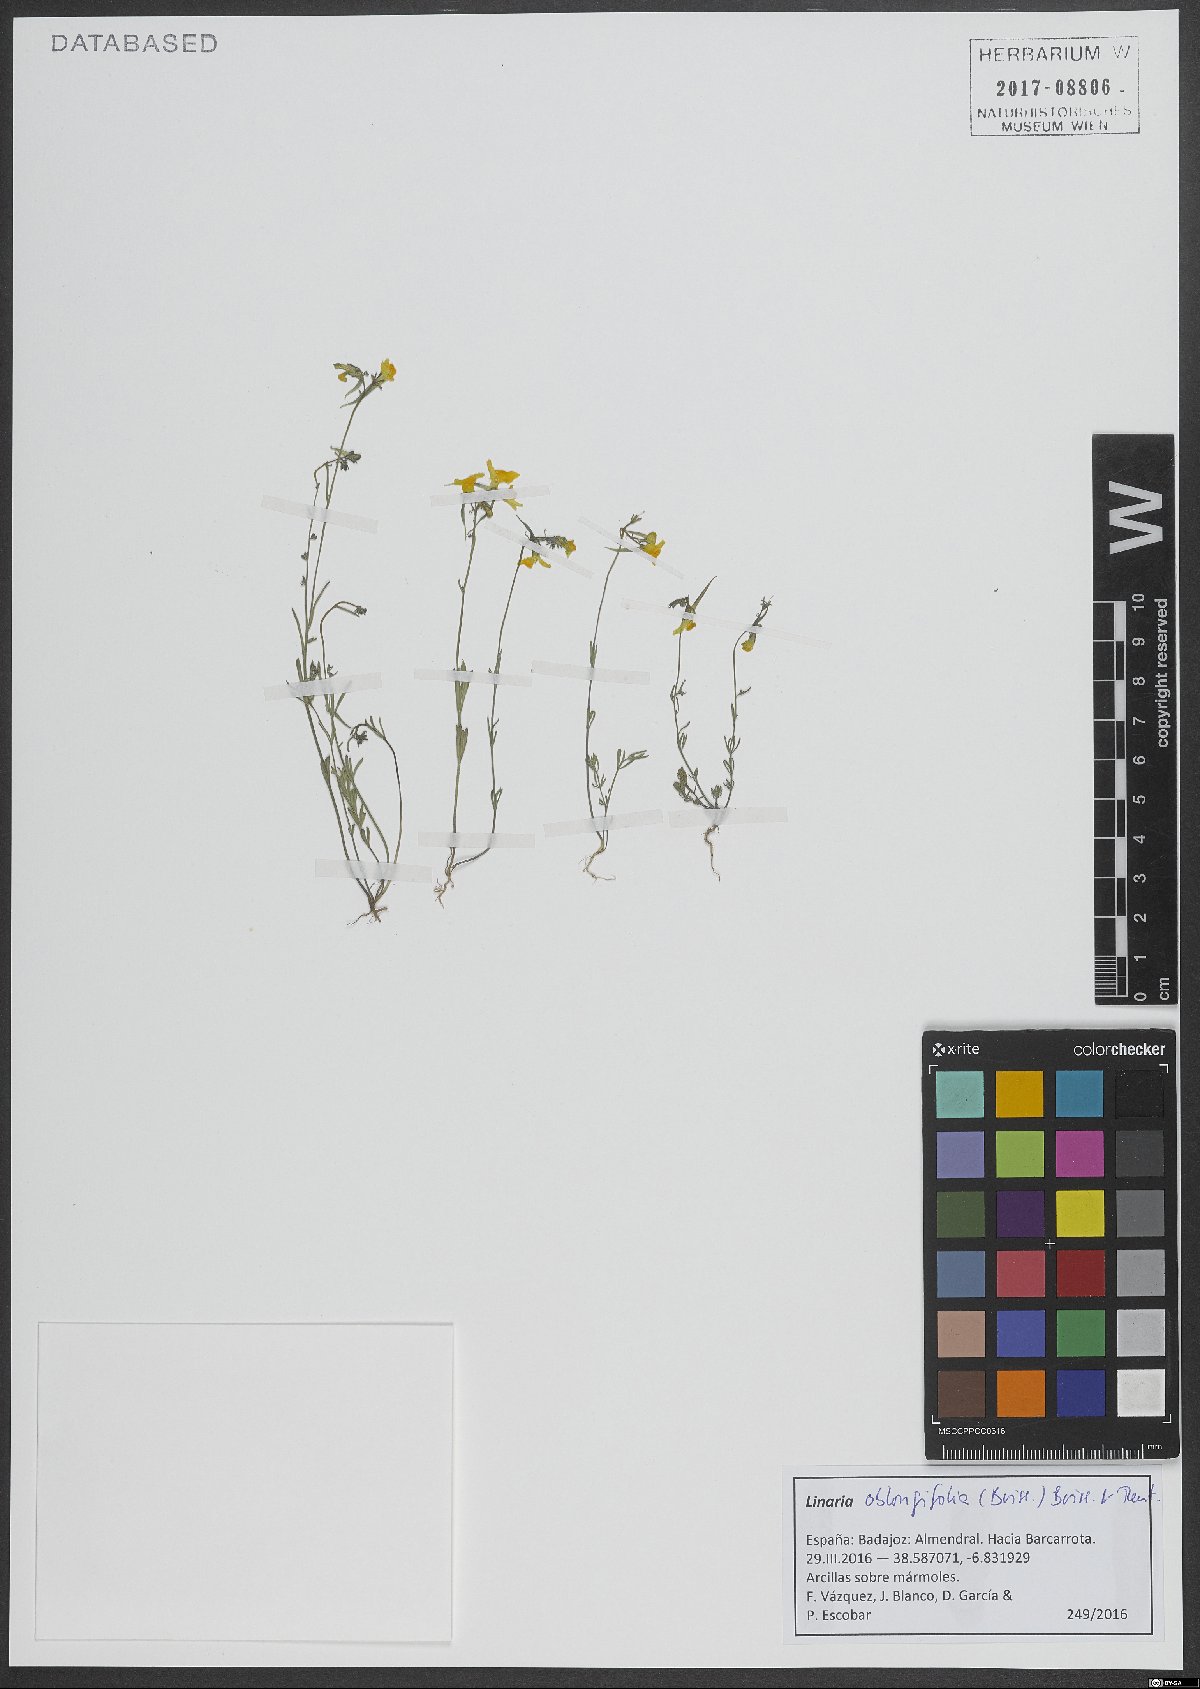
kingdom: Plantae
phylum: Tracheophyta
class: Magnoliopsida
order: Lamiales
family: Plantaginaceae
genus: Linaria
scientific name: Linaria oblongifolia
